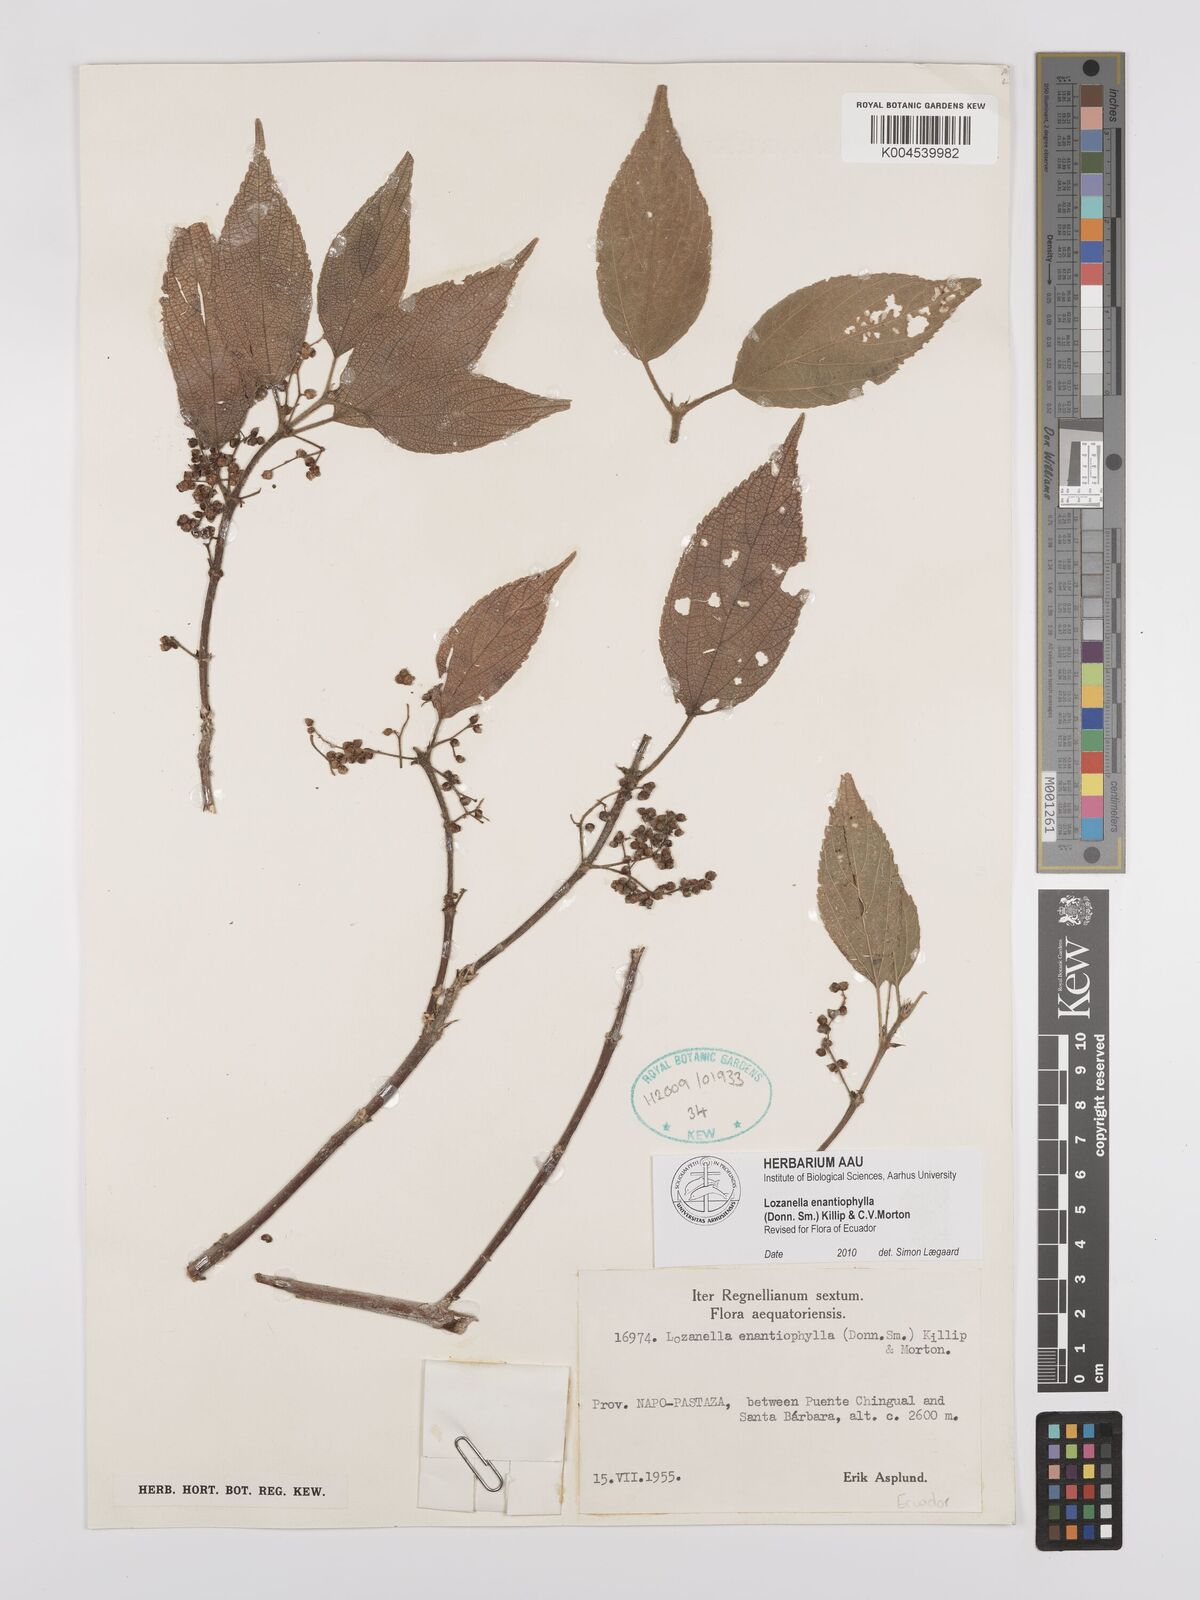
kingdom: Plantae
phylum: Tracheophyta
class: Magnoliopsida
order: Rosales
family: Cannabaceae
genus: Lozanella
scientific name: Lozanella enantiophylla
